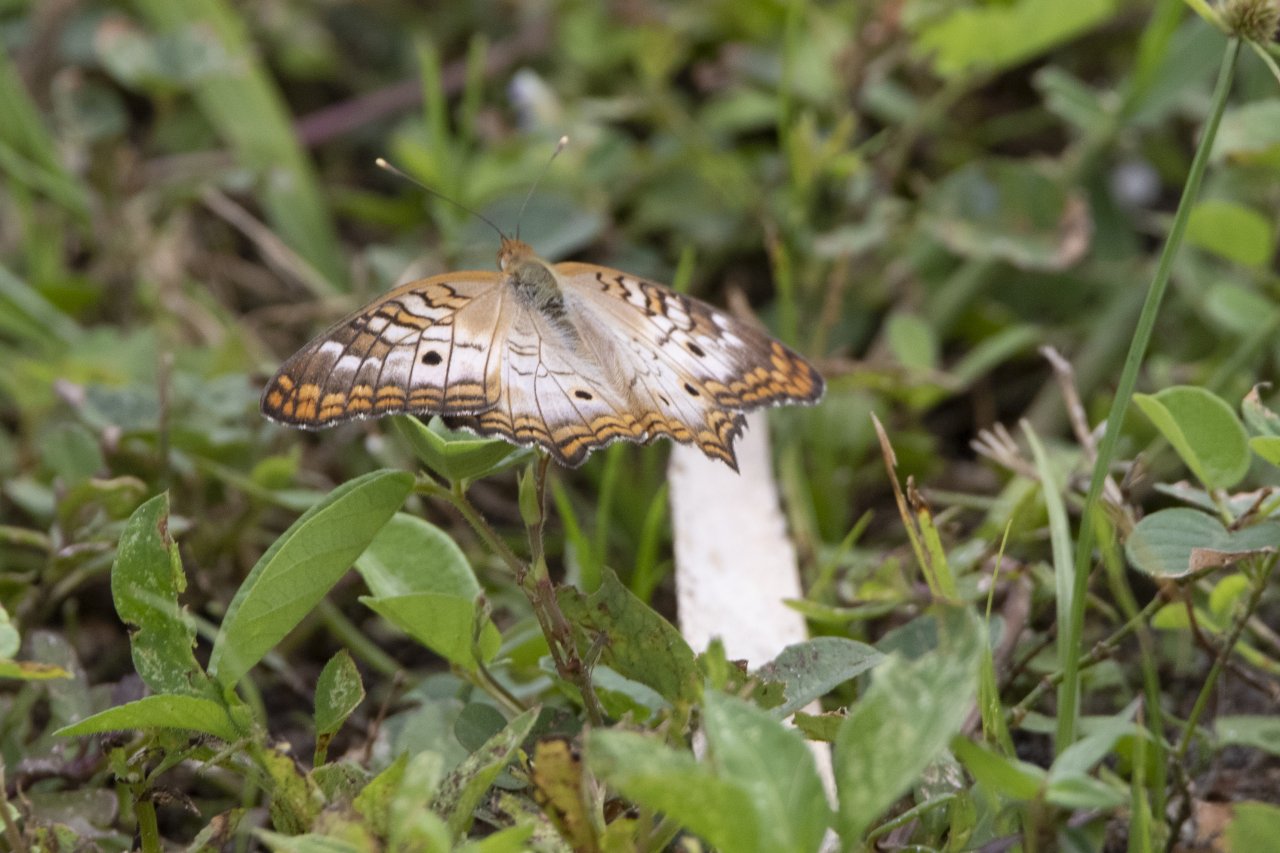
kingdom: Animalia
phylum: Arthropoda
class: Insecta
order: Lepidoptera
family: Nymphalidae
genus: Anartia
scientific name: Anartia jatrophae
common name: White Peacock
